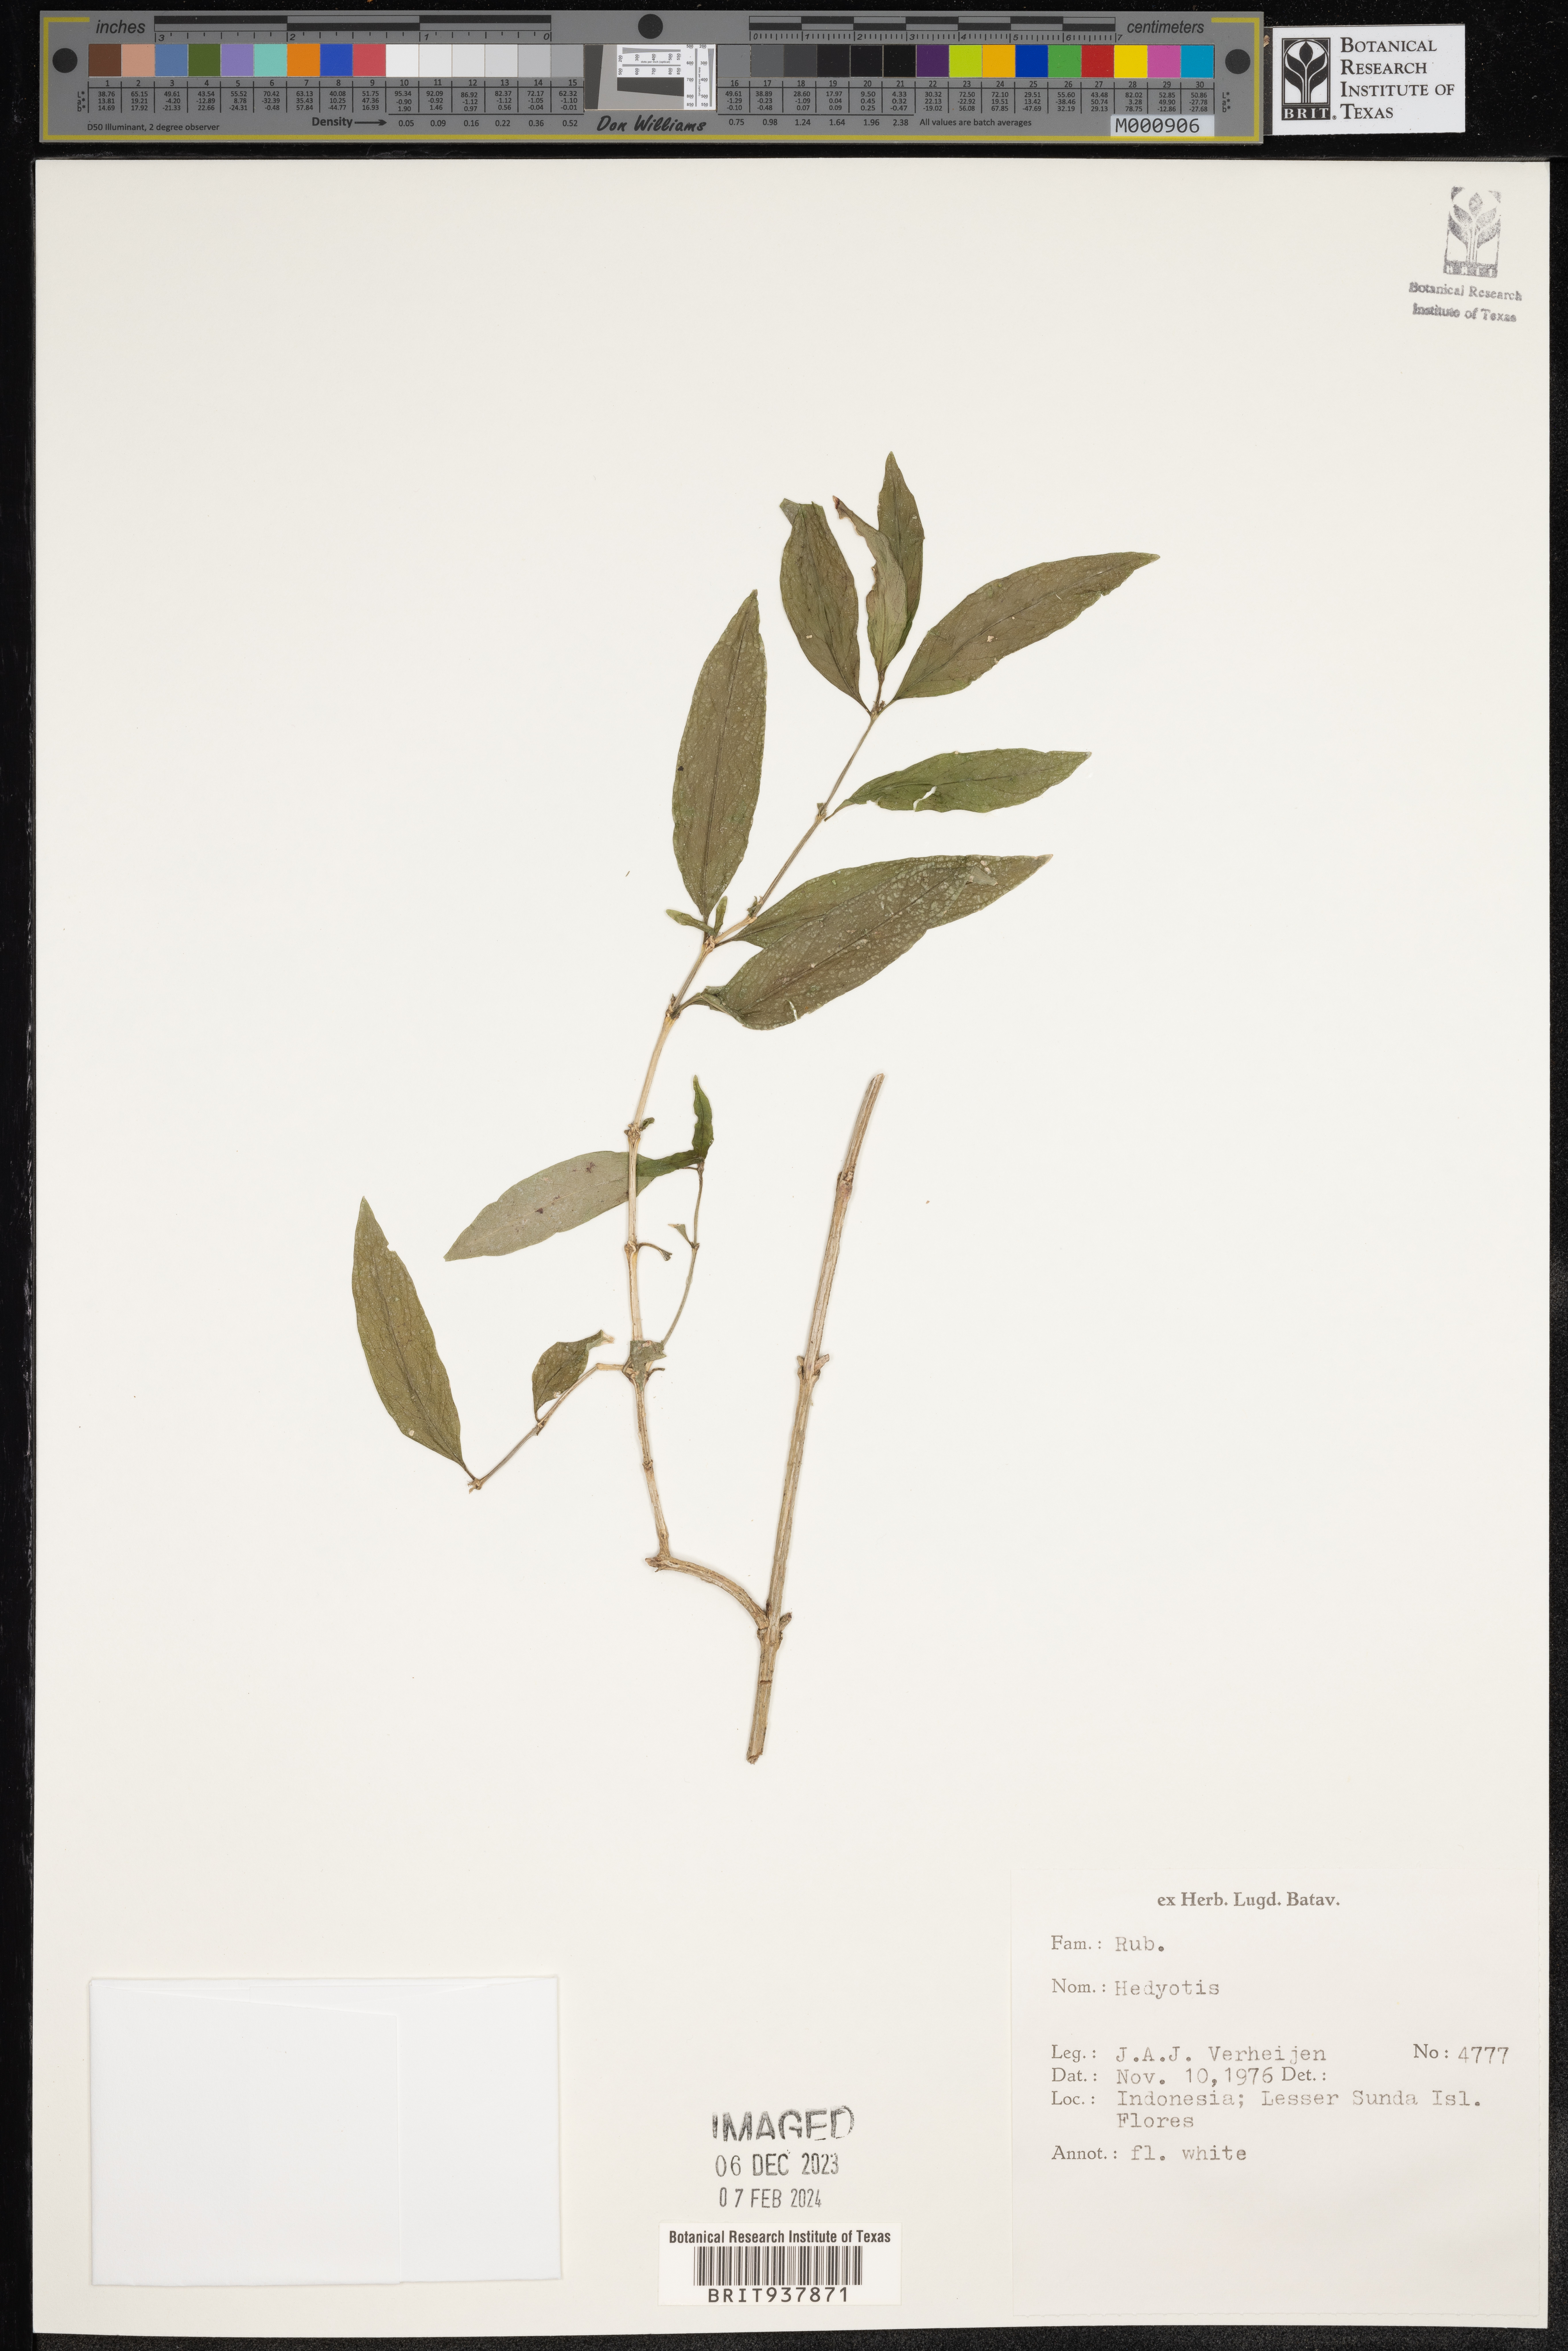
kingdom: Plantae
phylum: Tracheophyta
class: Magnoliopsida
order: Gentianales
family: Rubiaceae
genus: Hedyotis
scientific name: Hedyotis
